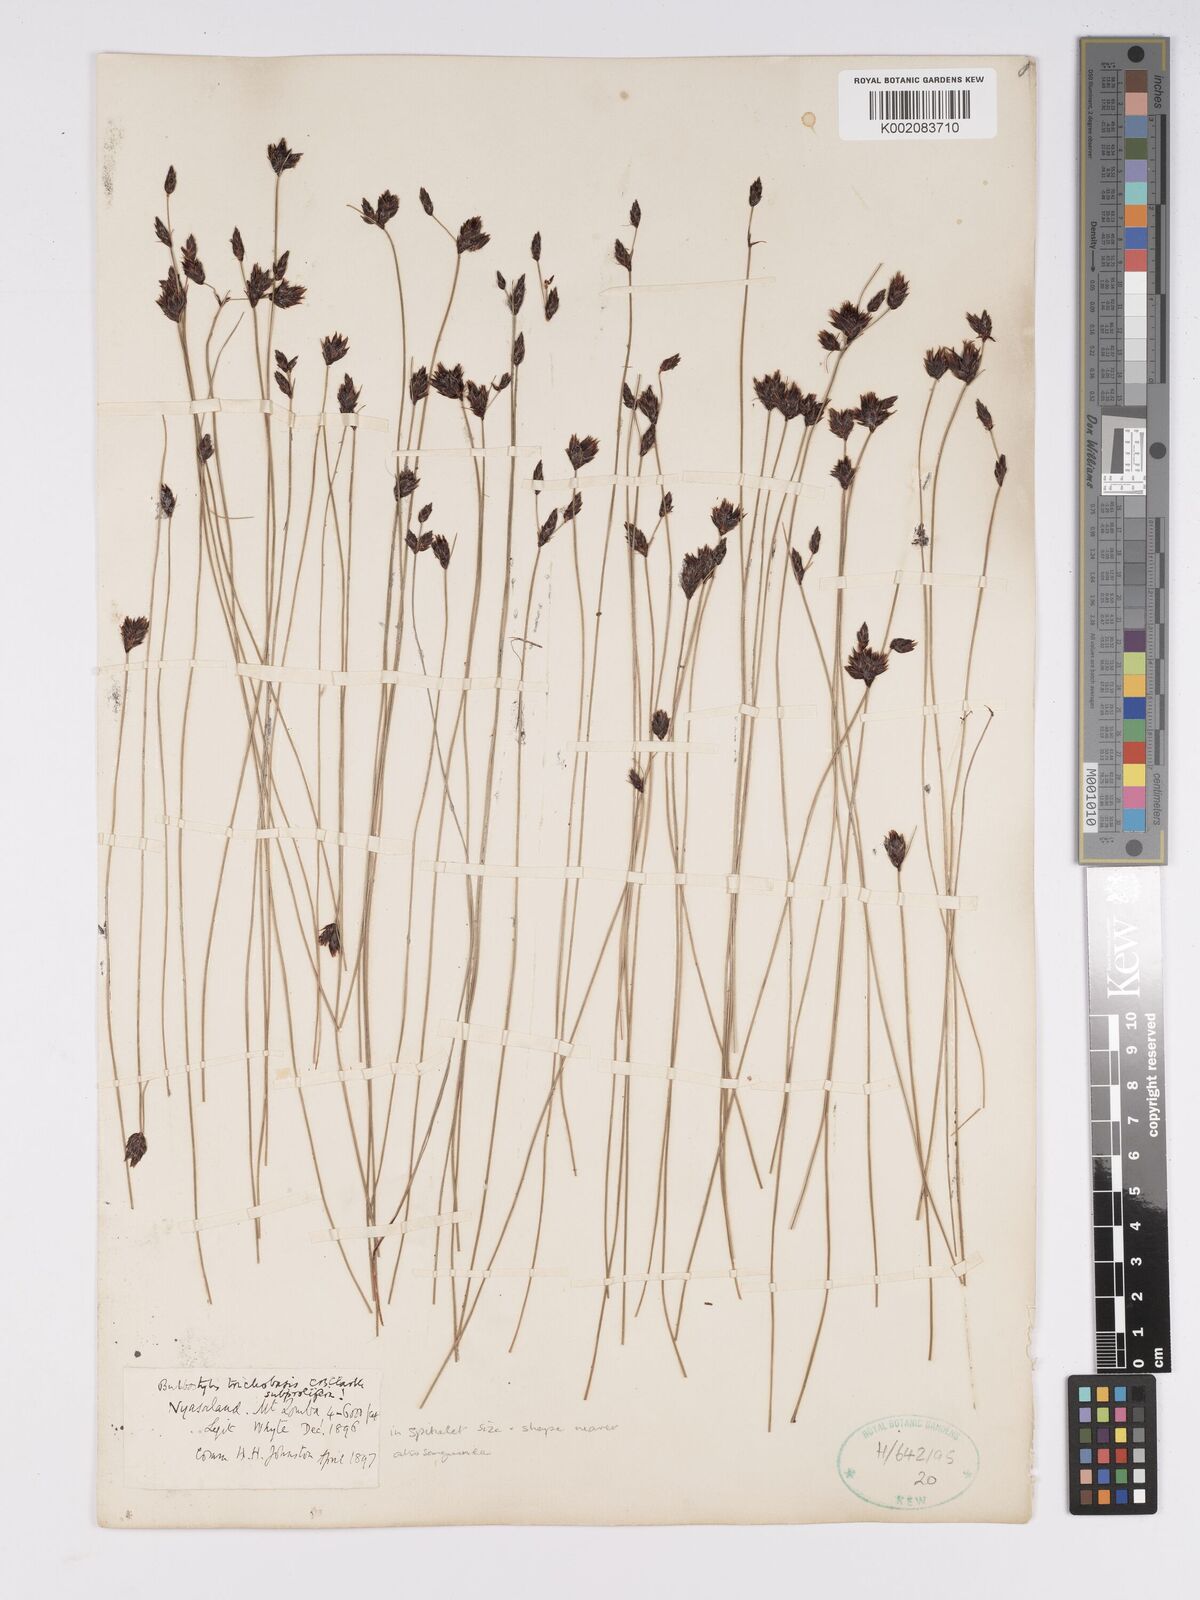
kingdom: Plantae
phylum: Tracheophyta
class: Liliopsida
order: Poales
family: Cyperaceae
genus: Bulbostylis
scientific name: Bulbostylis trichobasis
